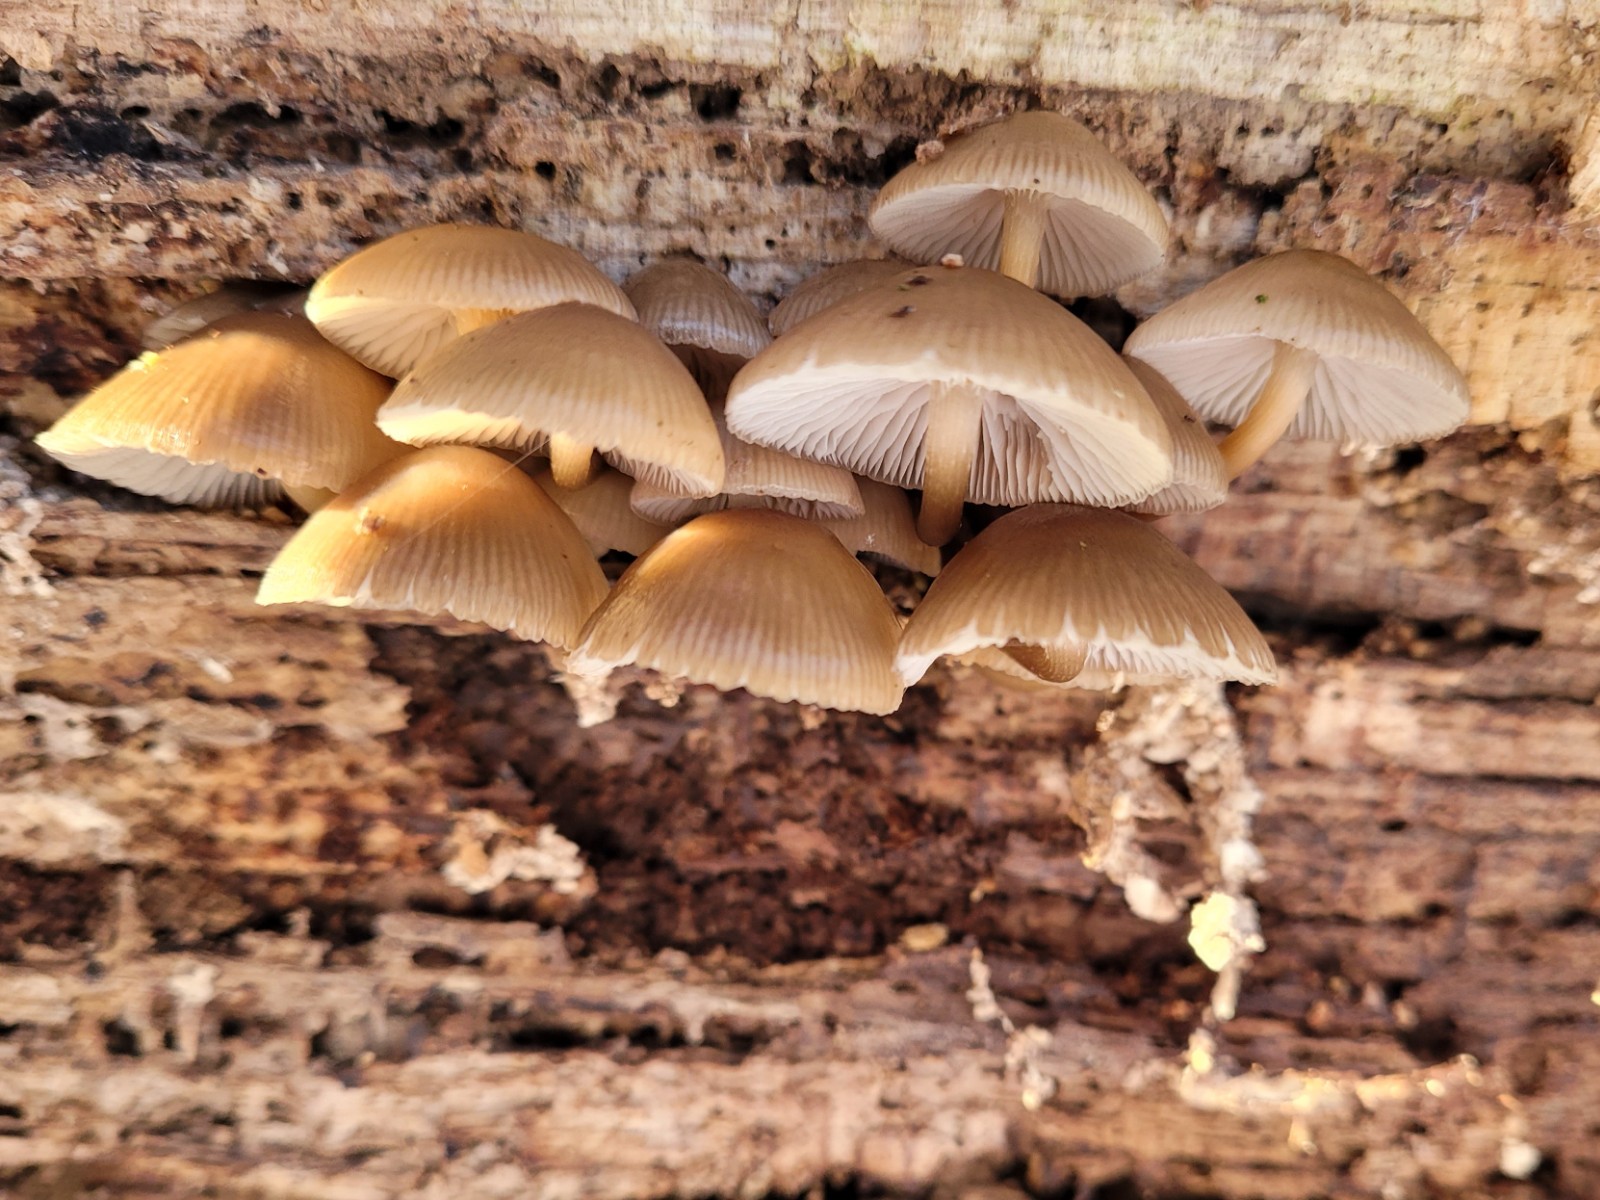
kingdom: Fungi
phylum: Basidiomycota
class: Agaricomycetes
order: Agaricales
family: Mycenaceae
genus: Mycena
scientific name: Mycena tintinnabulum
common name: vinter-huesvamp
